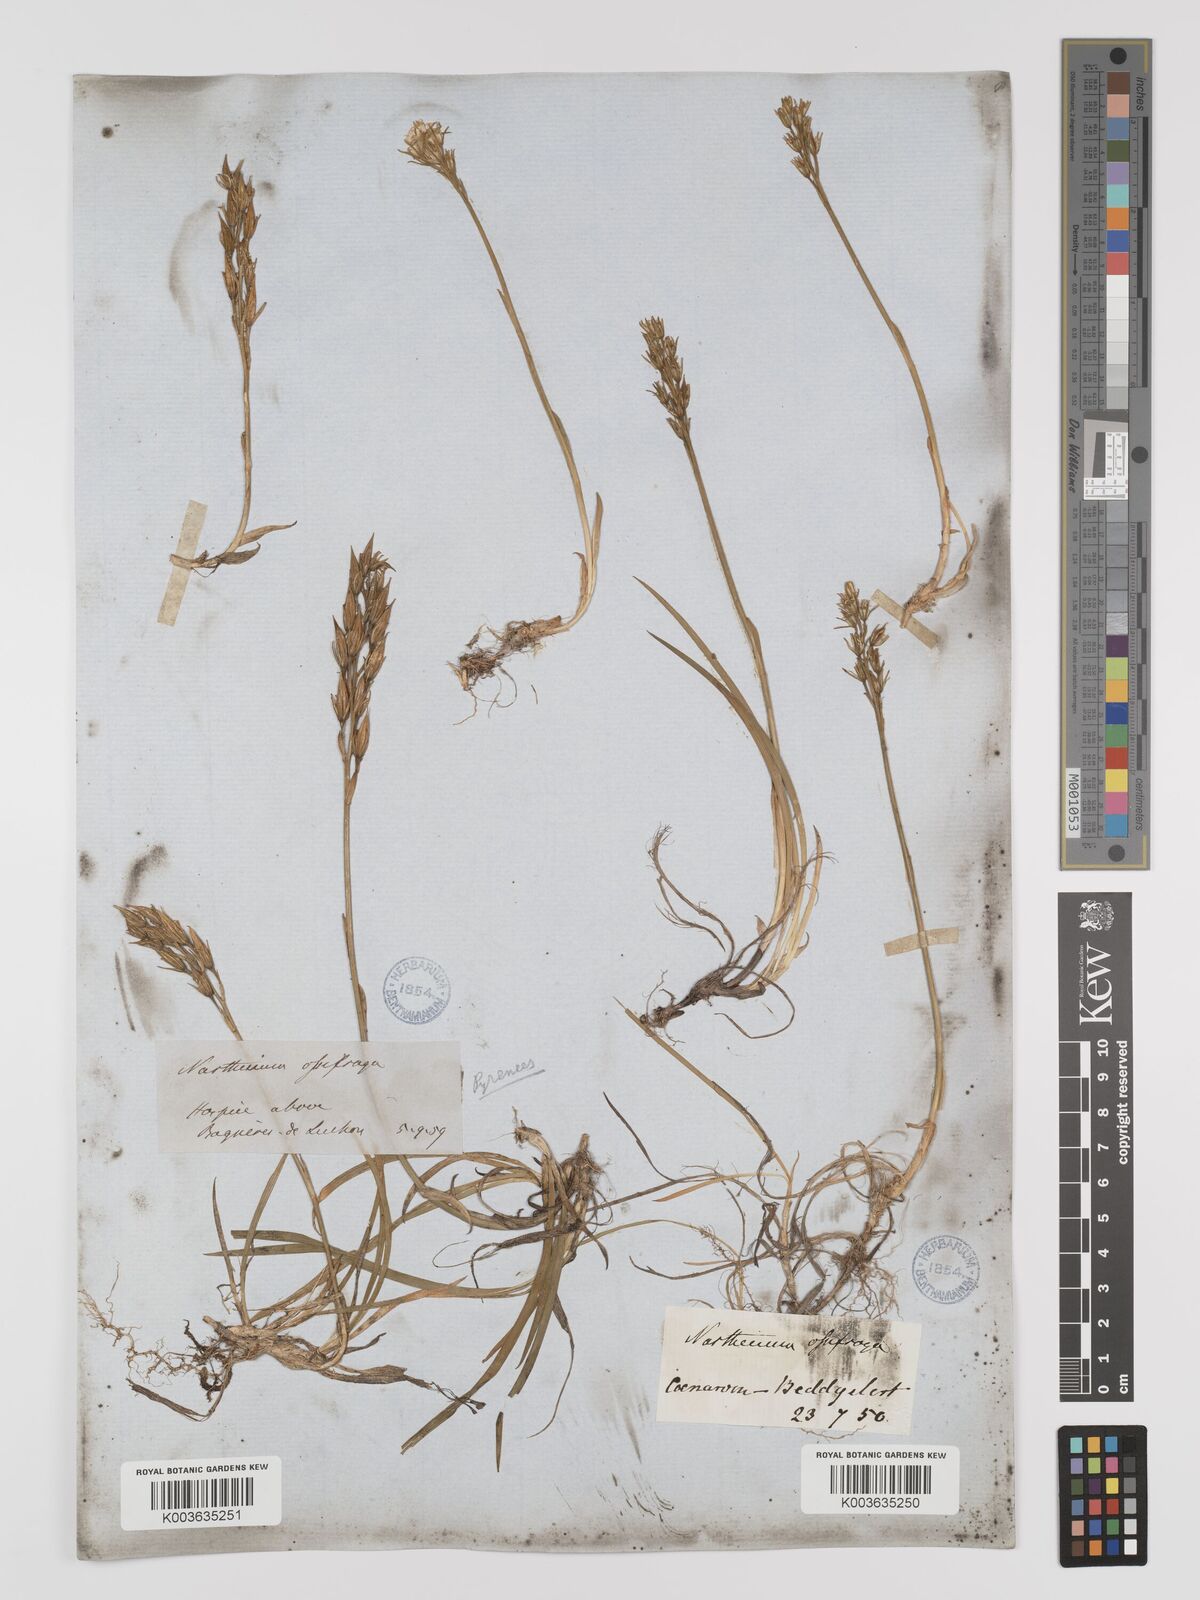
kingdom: Plantae
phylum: Tracheophyta
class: Liliopsida
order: Dioscoreales
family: Nartheciaceae
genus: Narthecium
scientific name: Narthecium
